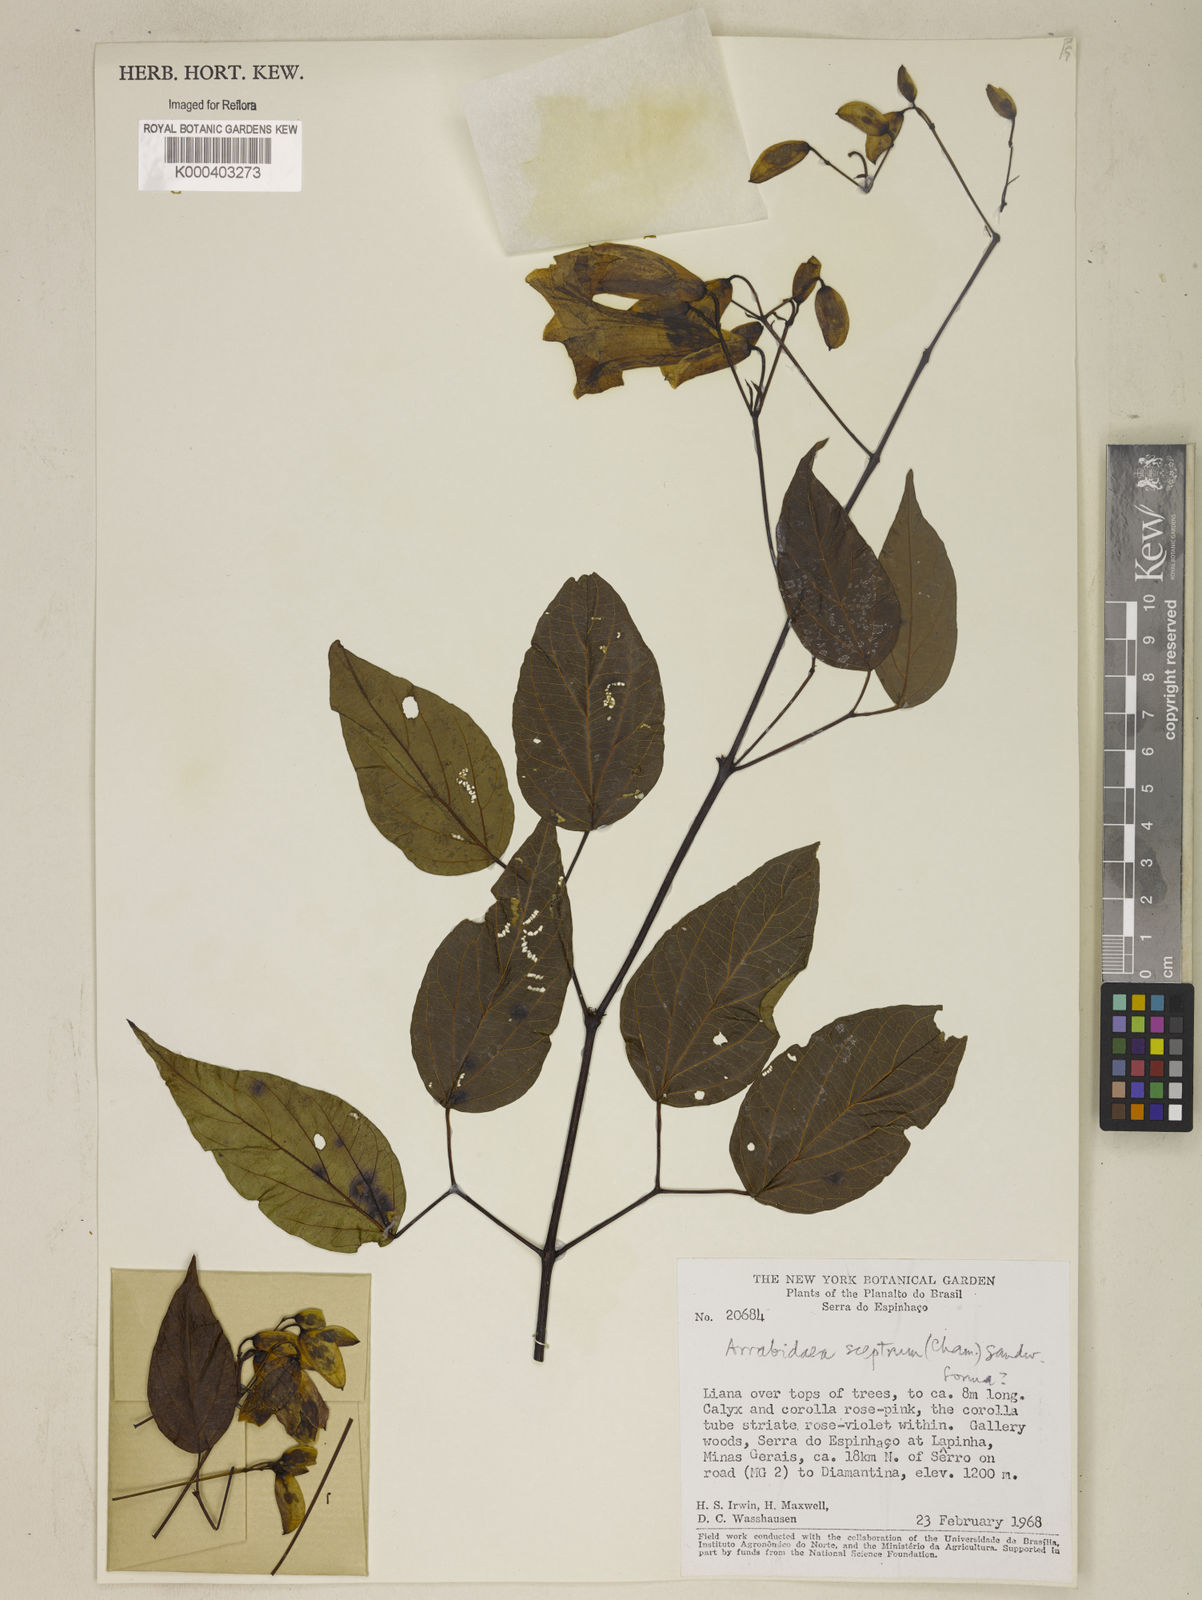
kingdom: Plantae
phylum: Tracheophyta
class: Magnoliopsida
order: Lamiales
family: Bignoniaceae
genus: Cuspidaria
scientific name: Cuspidaria sceptrum
